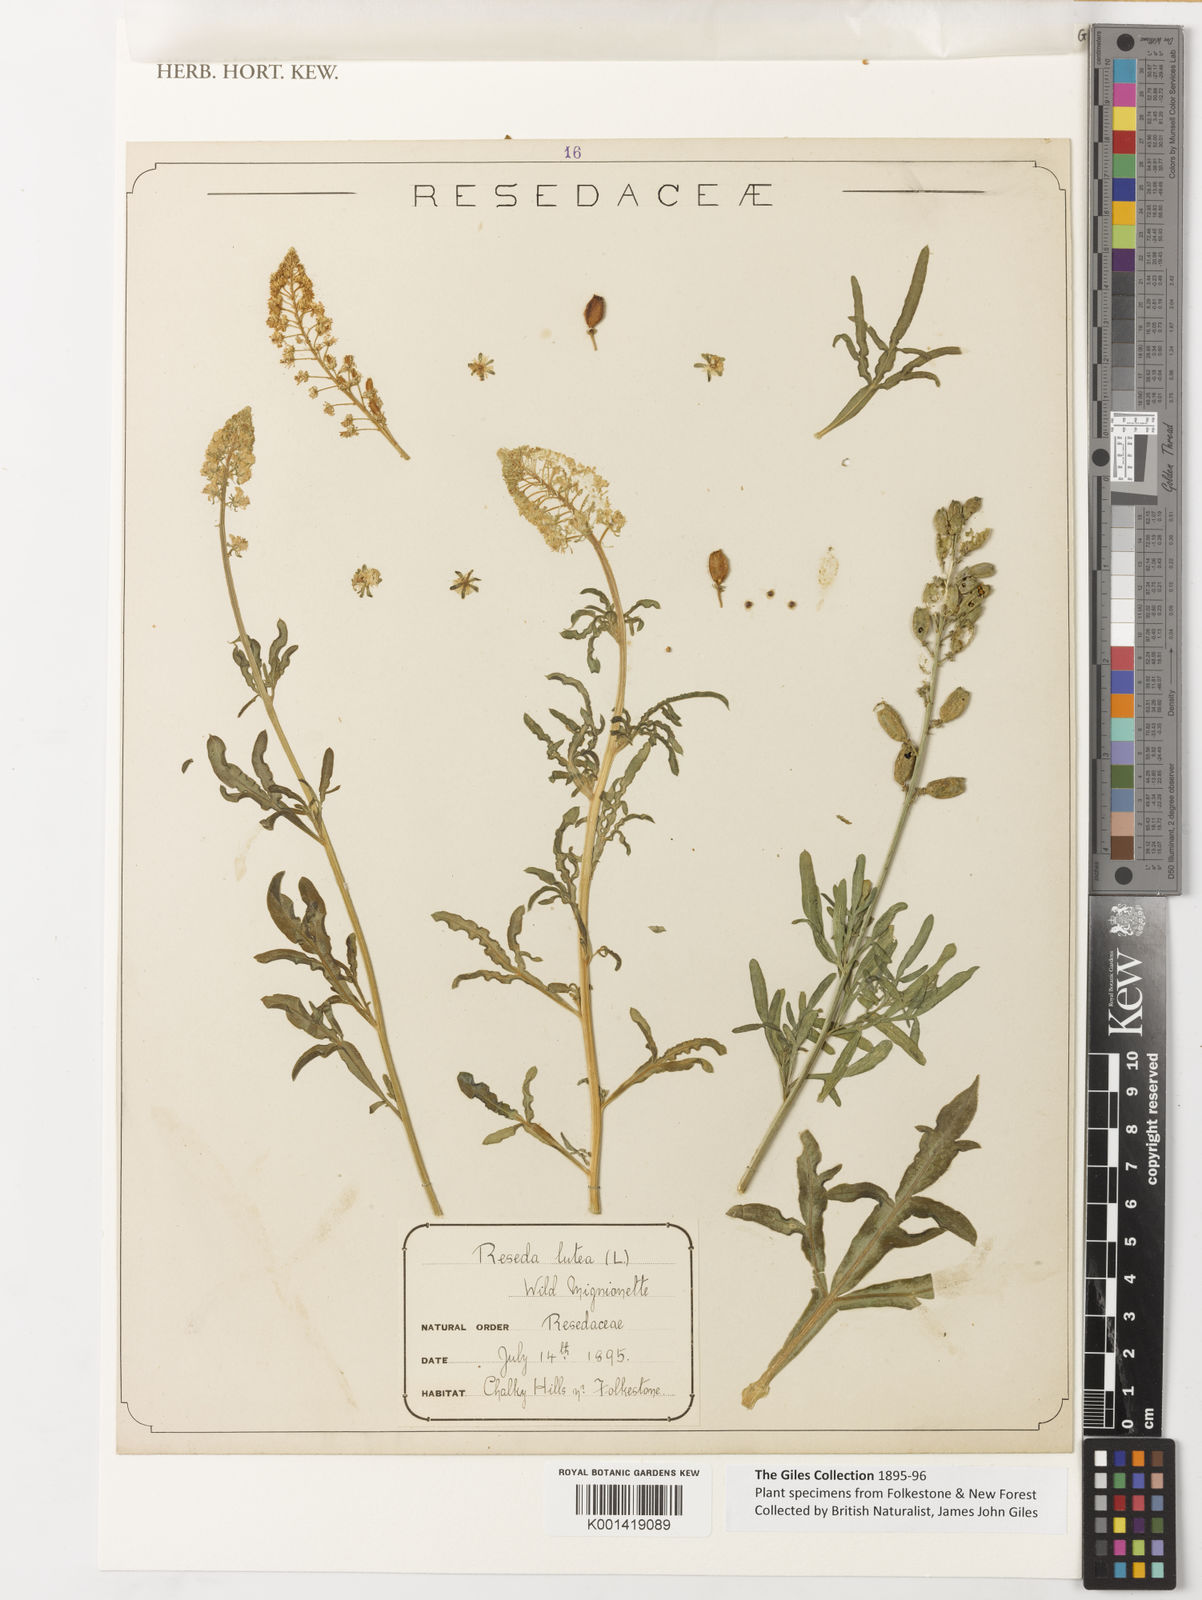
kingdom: Plantae
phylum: Tracheophyta
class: Magnoliopsida
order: Brassicales
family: Resedaceae
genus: Reseda
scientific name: Reseda lutea
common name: Wild mignonette
